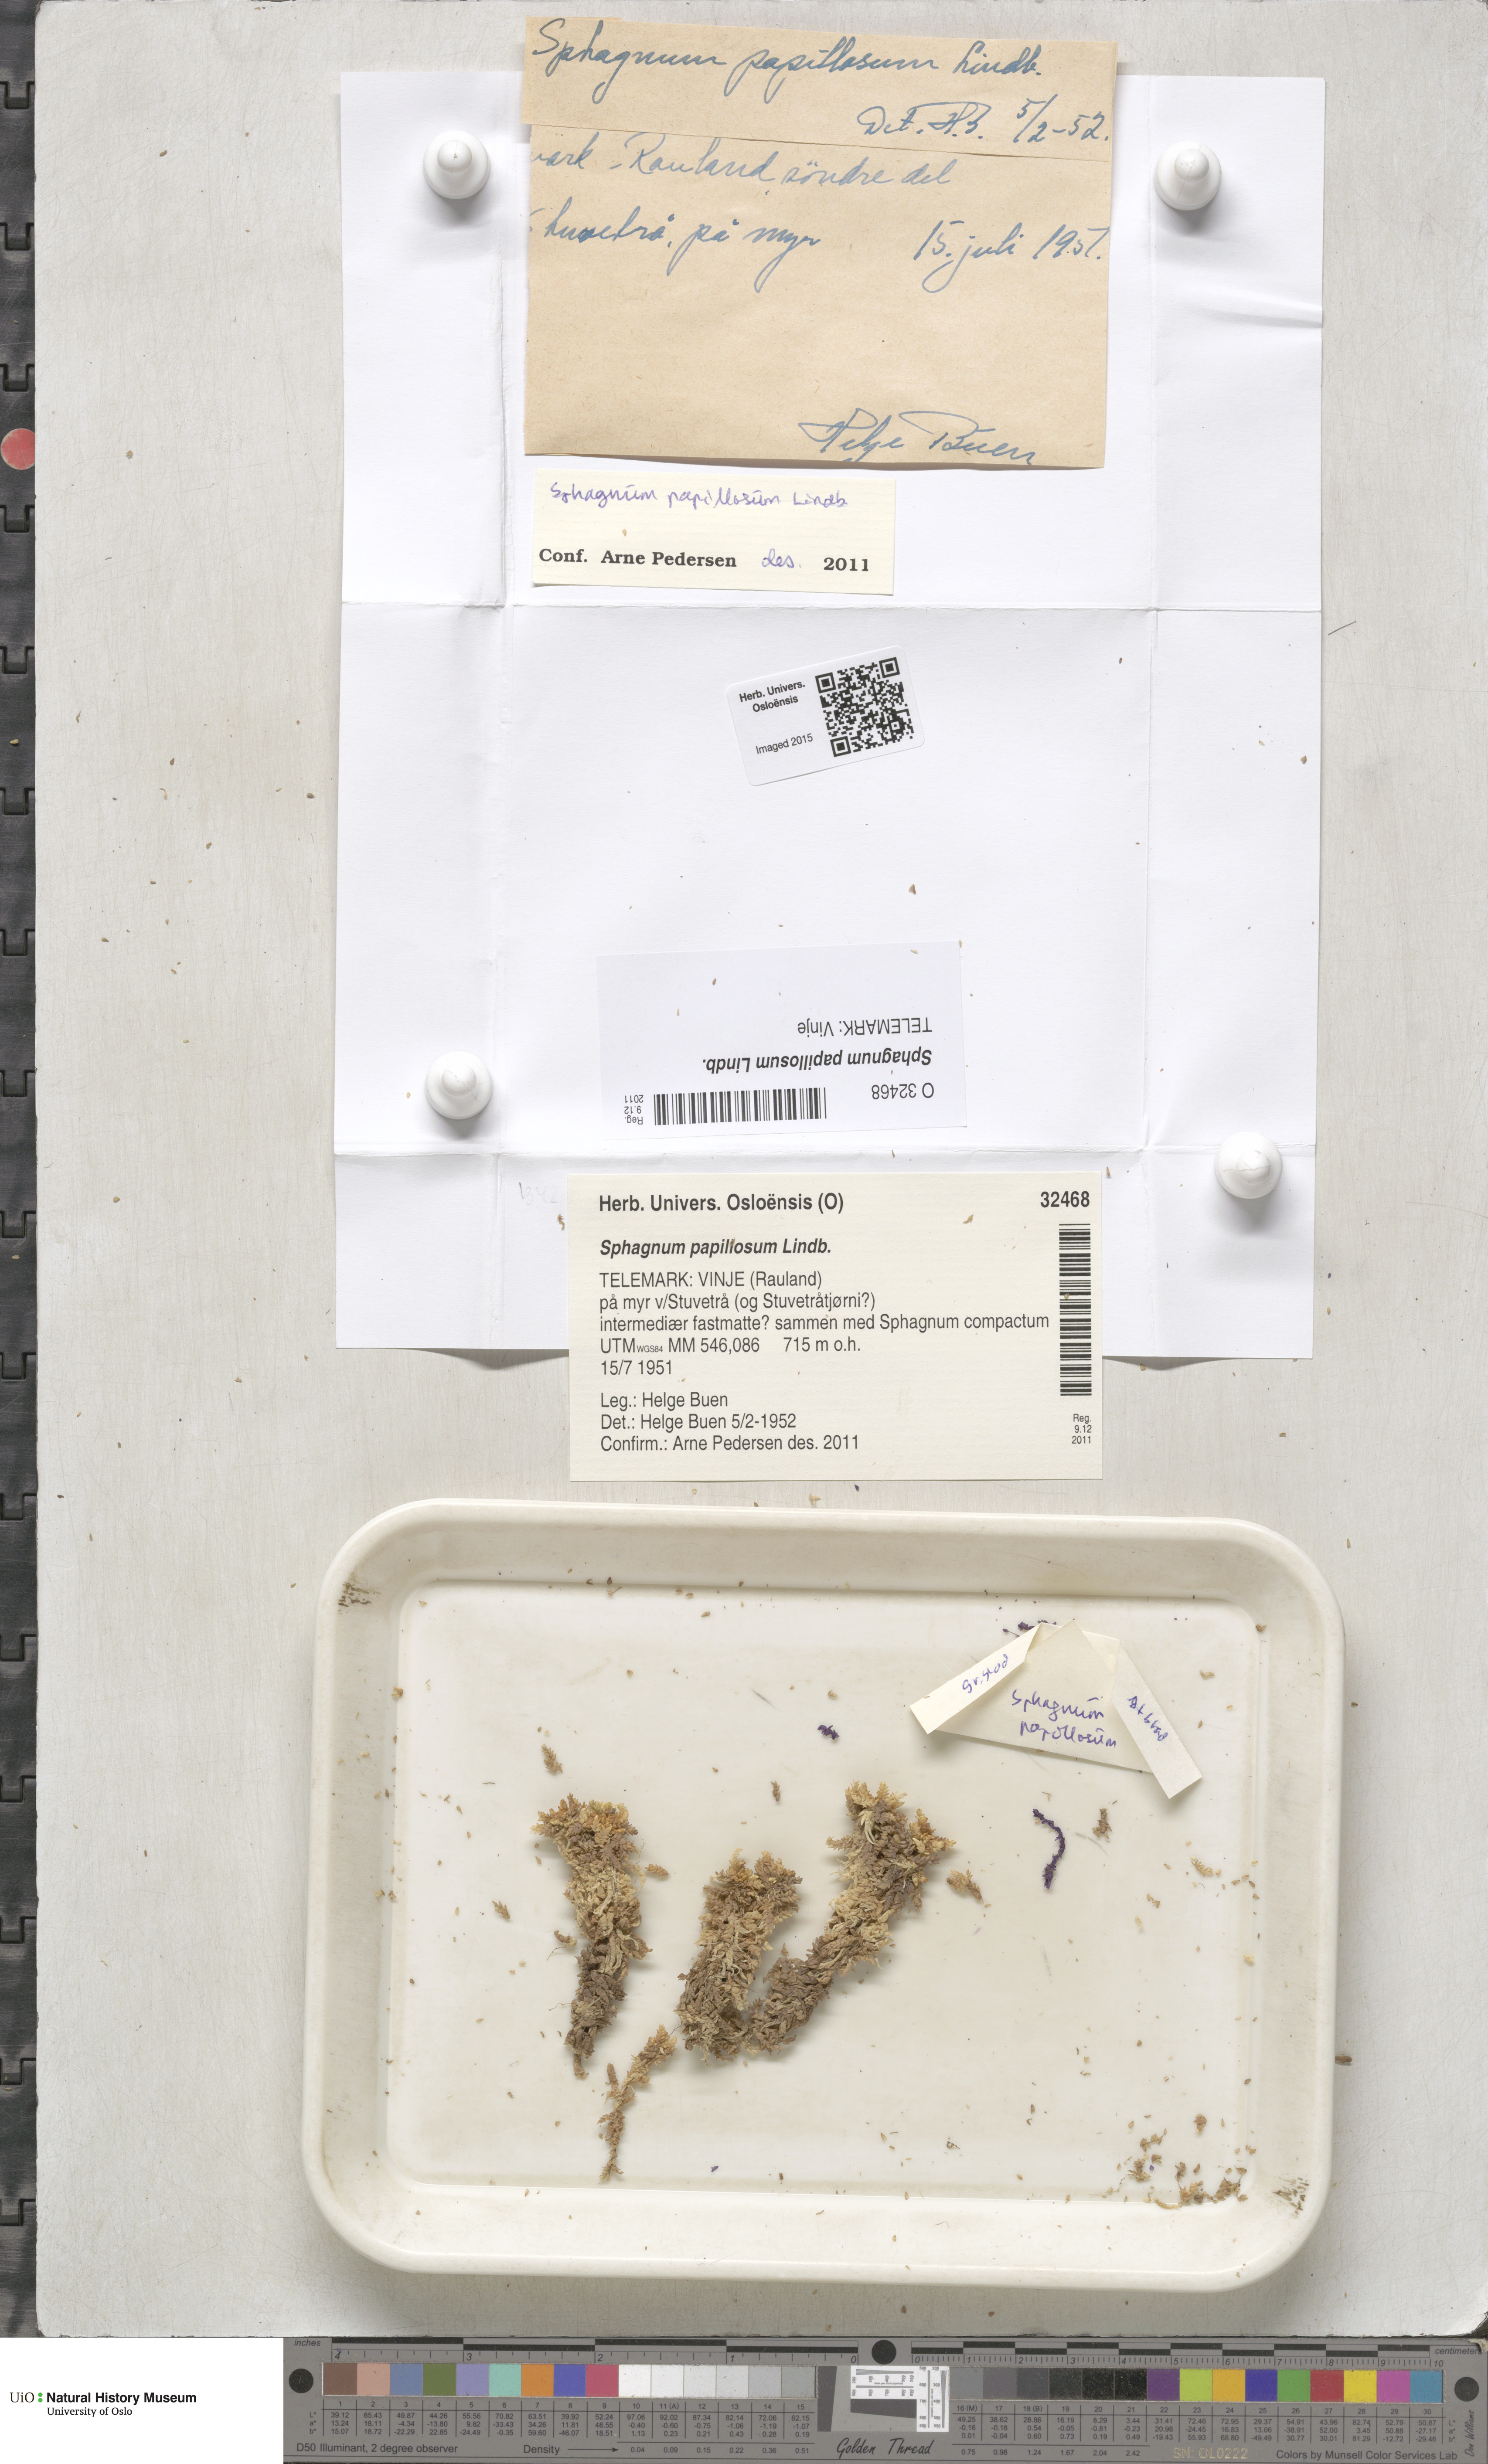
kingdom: Plantae
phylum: Bryophyta
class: Sphagnopsida
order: Sphagnales
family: Sphagnaceae
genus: Sphagnum
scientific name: Sphagnum papillosum
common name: Papillose peat moss
